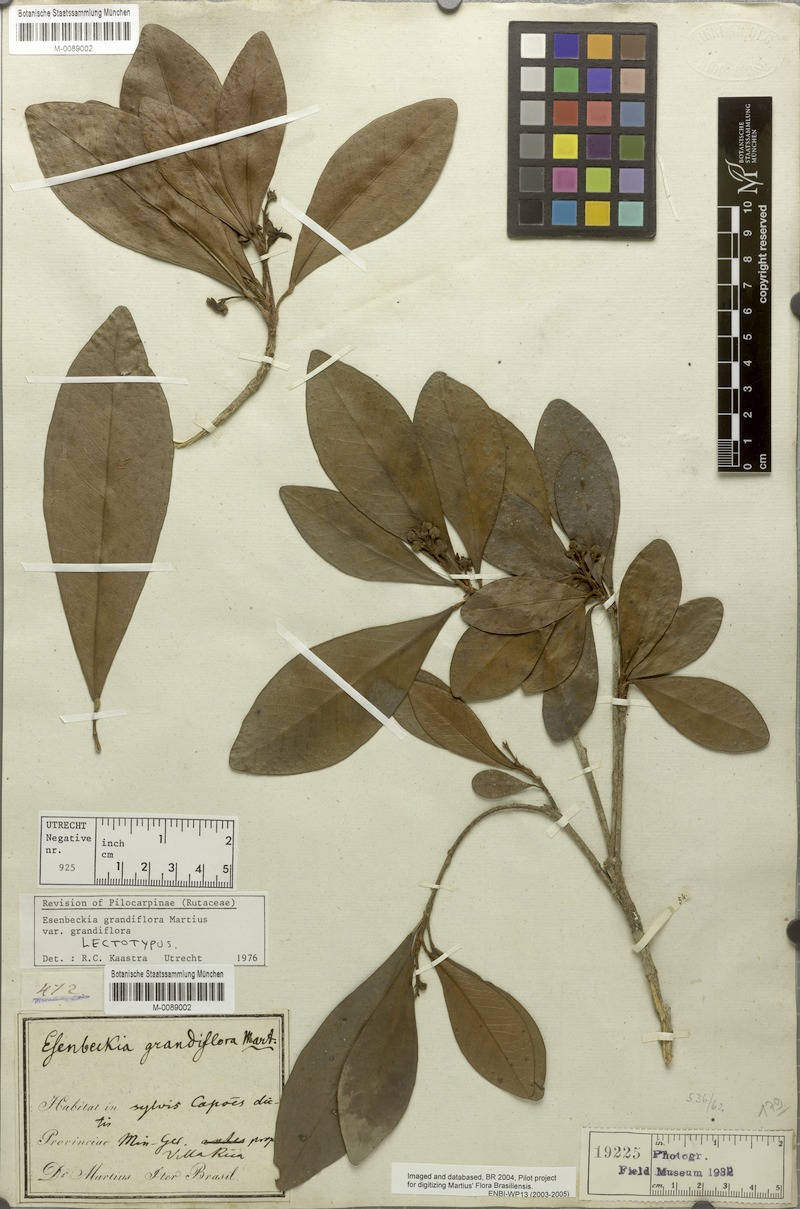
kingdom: Plantae
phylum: Tracheophyta
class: Magnoliopsida
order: Sapindales
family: Rutaceae
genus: Esenbeckia
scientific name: Esenbeckia grandiflora
